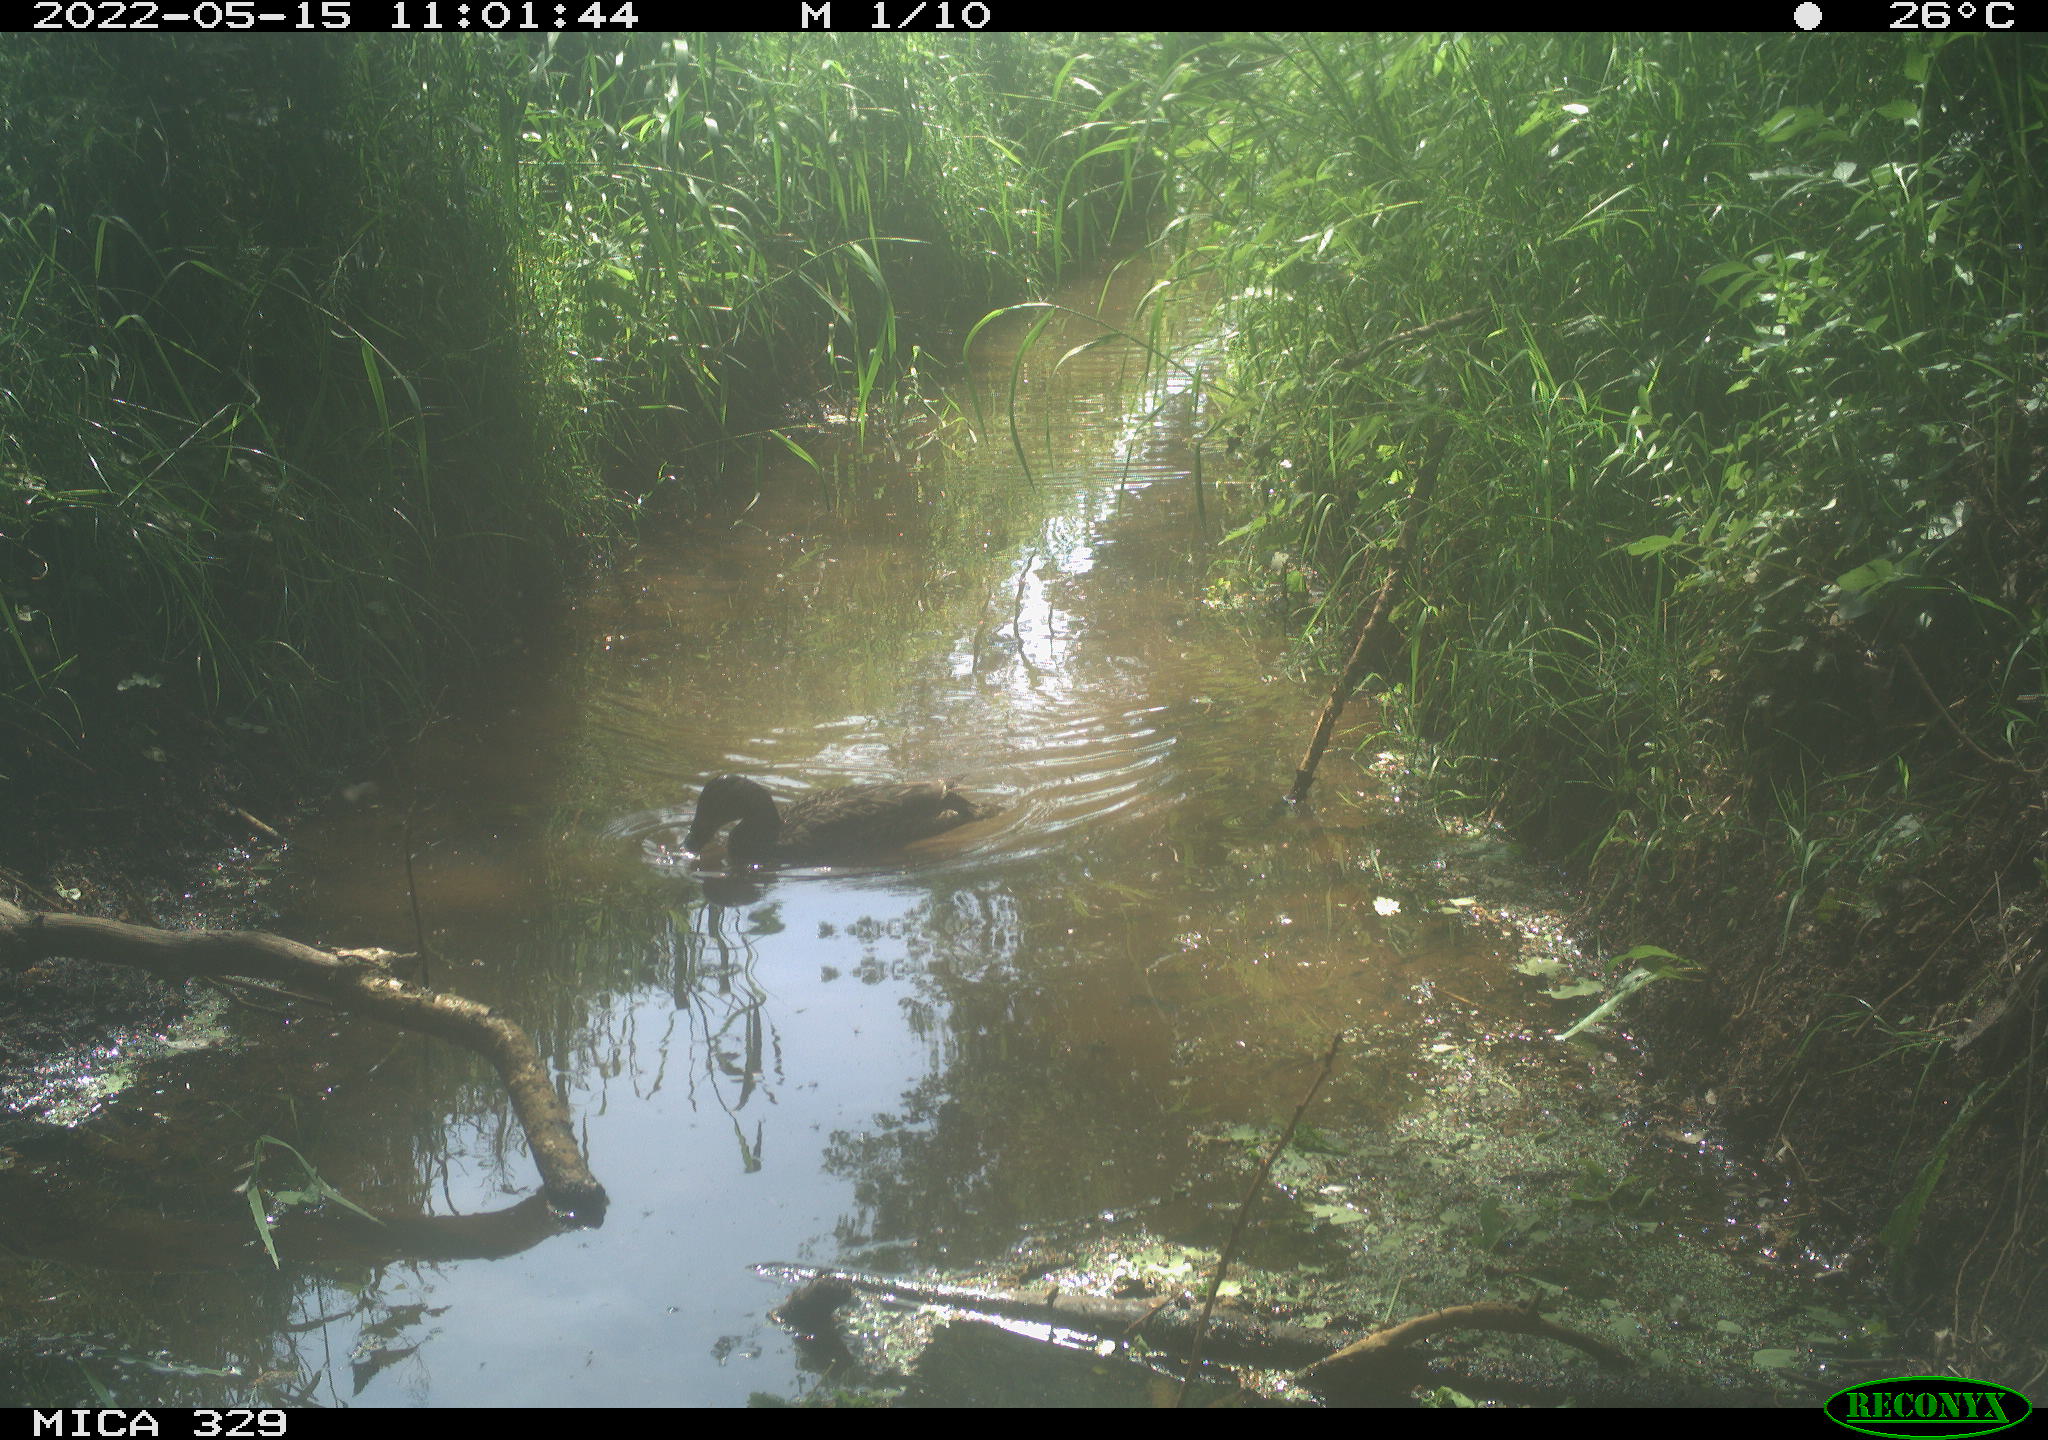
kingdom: Animalia
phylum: Chordata
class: Aves
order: Anseriformes
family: Anatidae
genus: Anas
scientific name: Anas platyrhynchos
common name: Mallard
